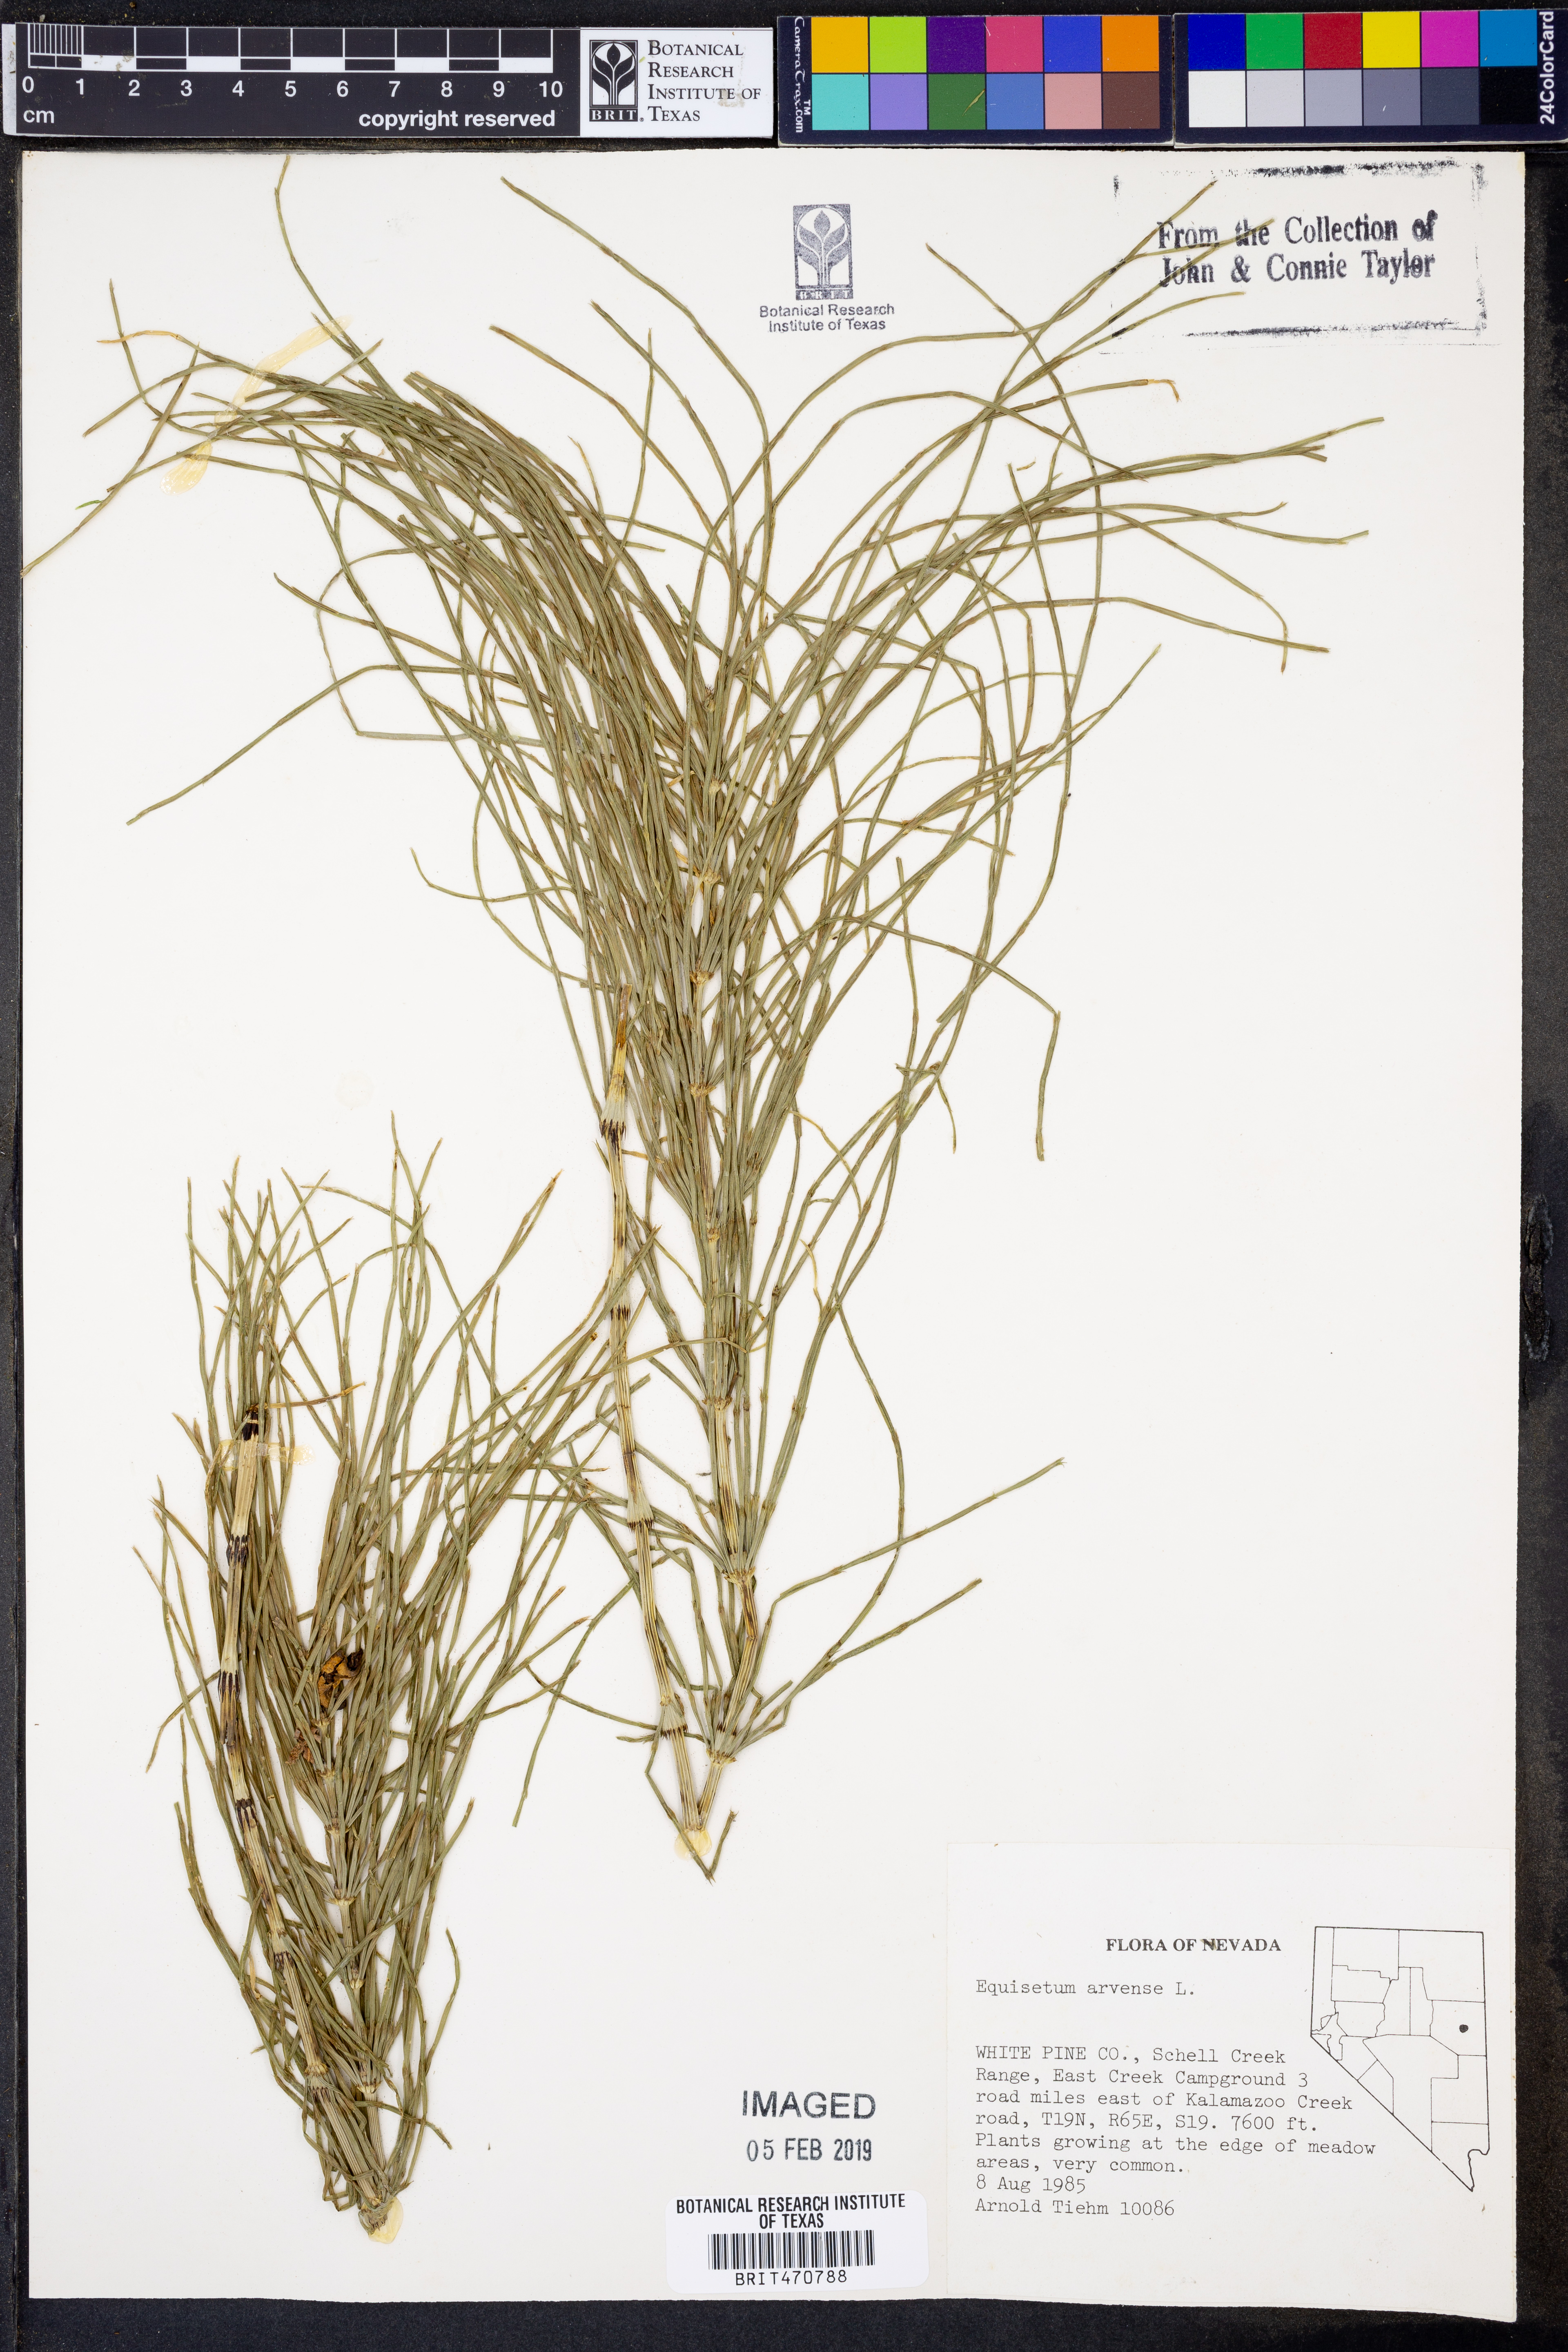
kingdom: Plantae
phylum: Tracheophyta
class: Polypodiopsida
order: Equisetales
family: Equisetaceae
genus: Equisetum
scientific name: Equisetum arvense
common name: Field horsetail
